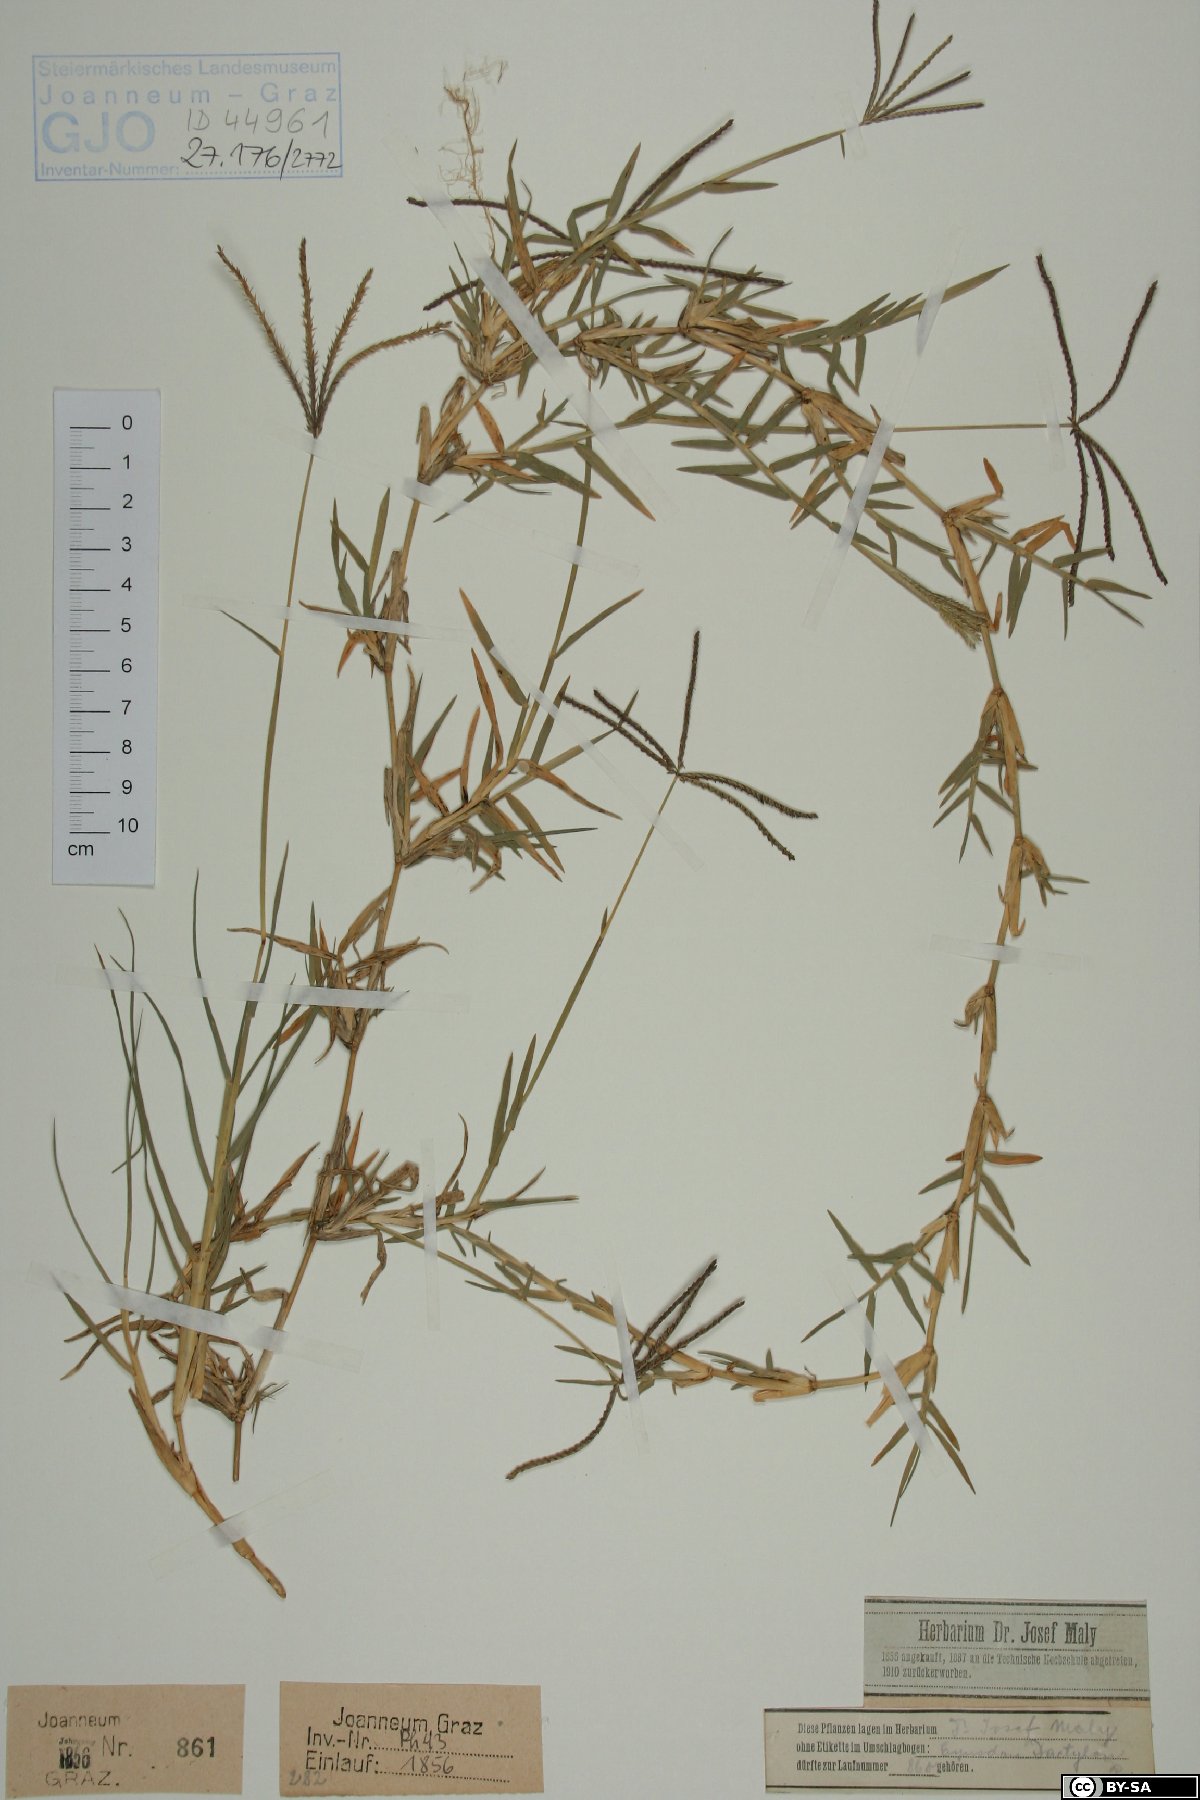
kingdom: Plantae
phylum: Tracheophyta
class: Liliopsida
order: Poales
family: Poaceae
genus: Cynodon
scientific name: Cynodon dactylon
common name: Bermuda grass
